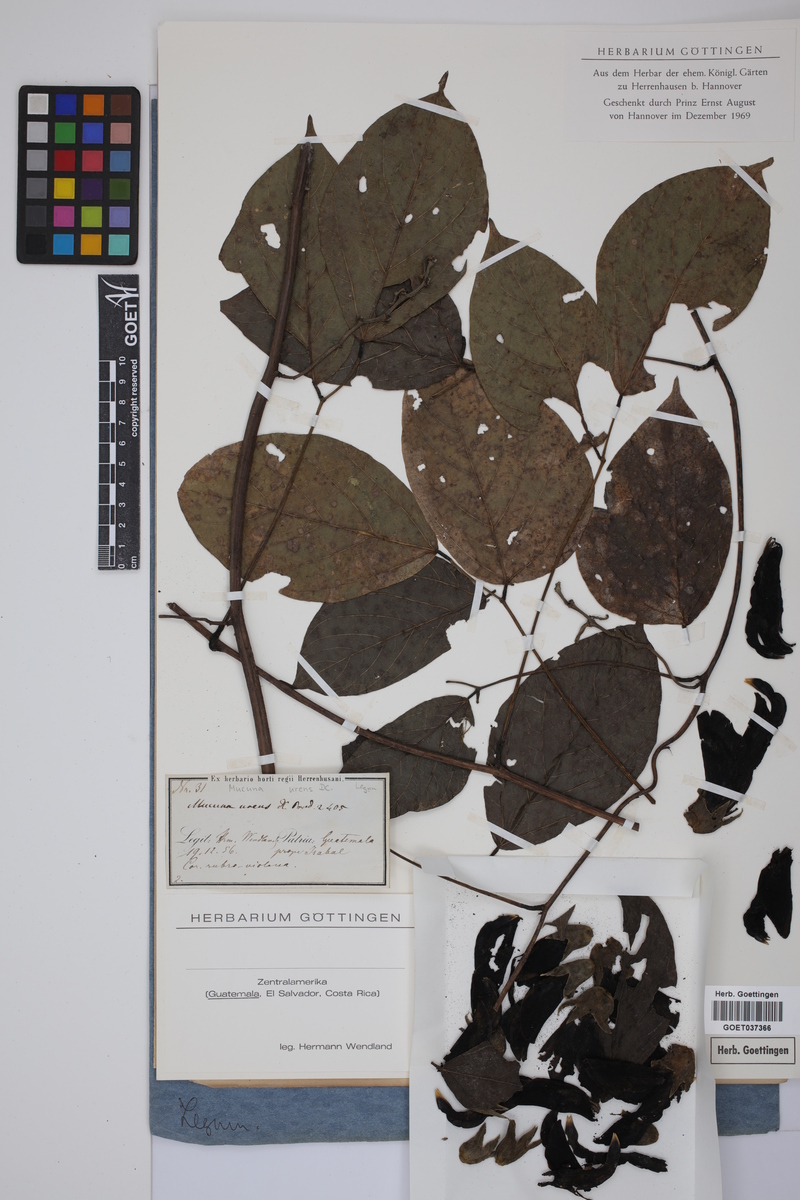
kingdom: Plantae
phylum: Tracheophyta
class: Magnoliopsida
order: Fabales
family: Fabaceae
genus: Mucuna
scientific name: Mucuna urens
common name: Red hamburger bean
